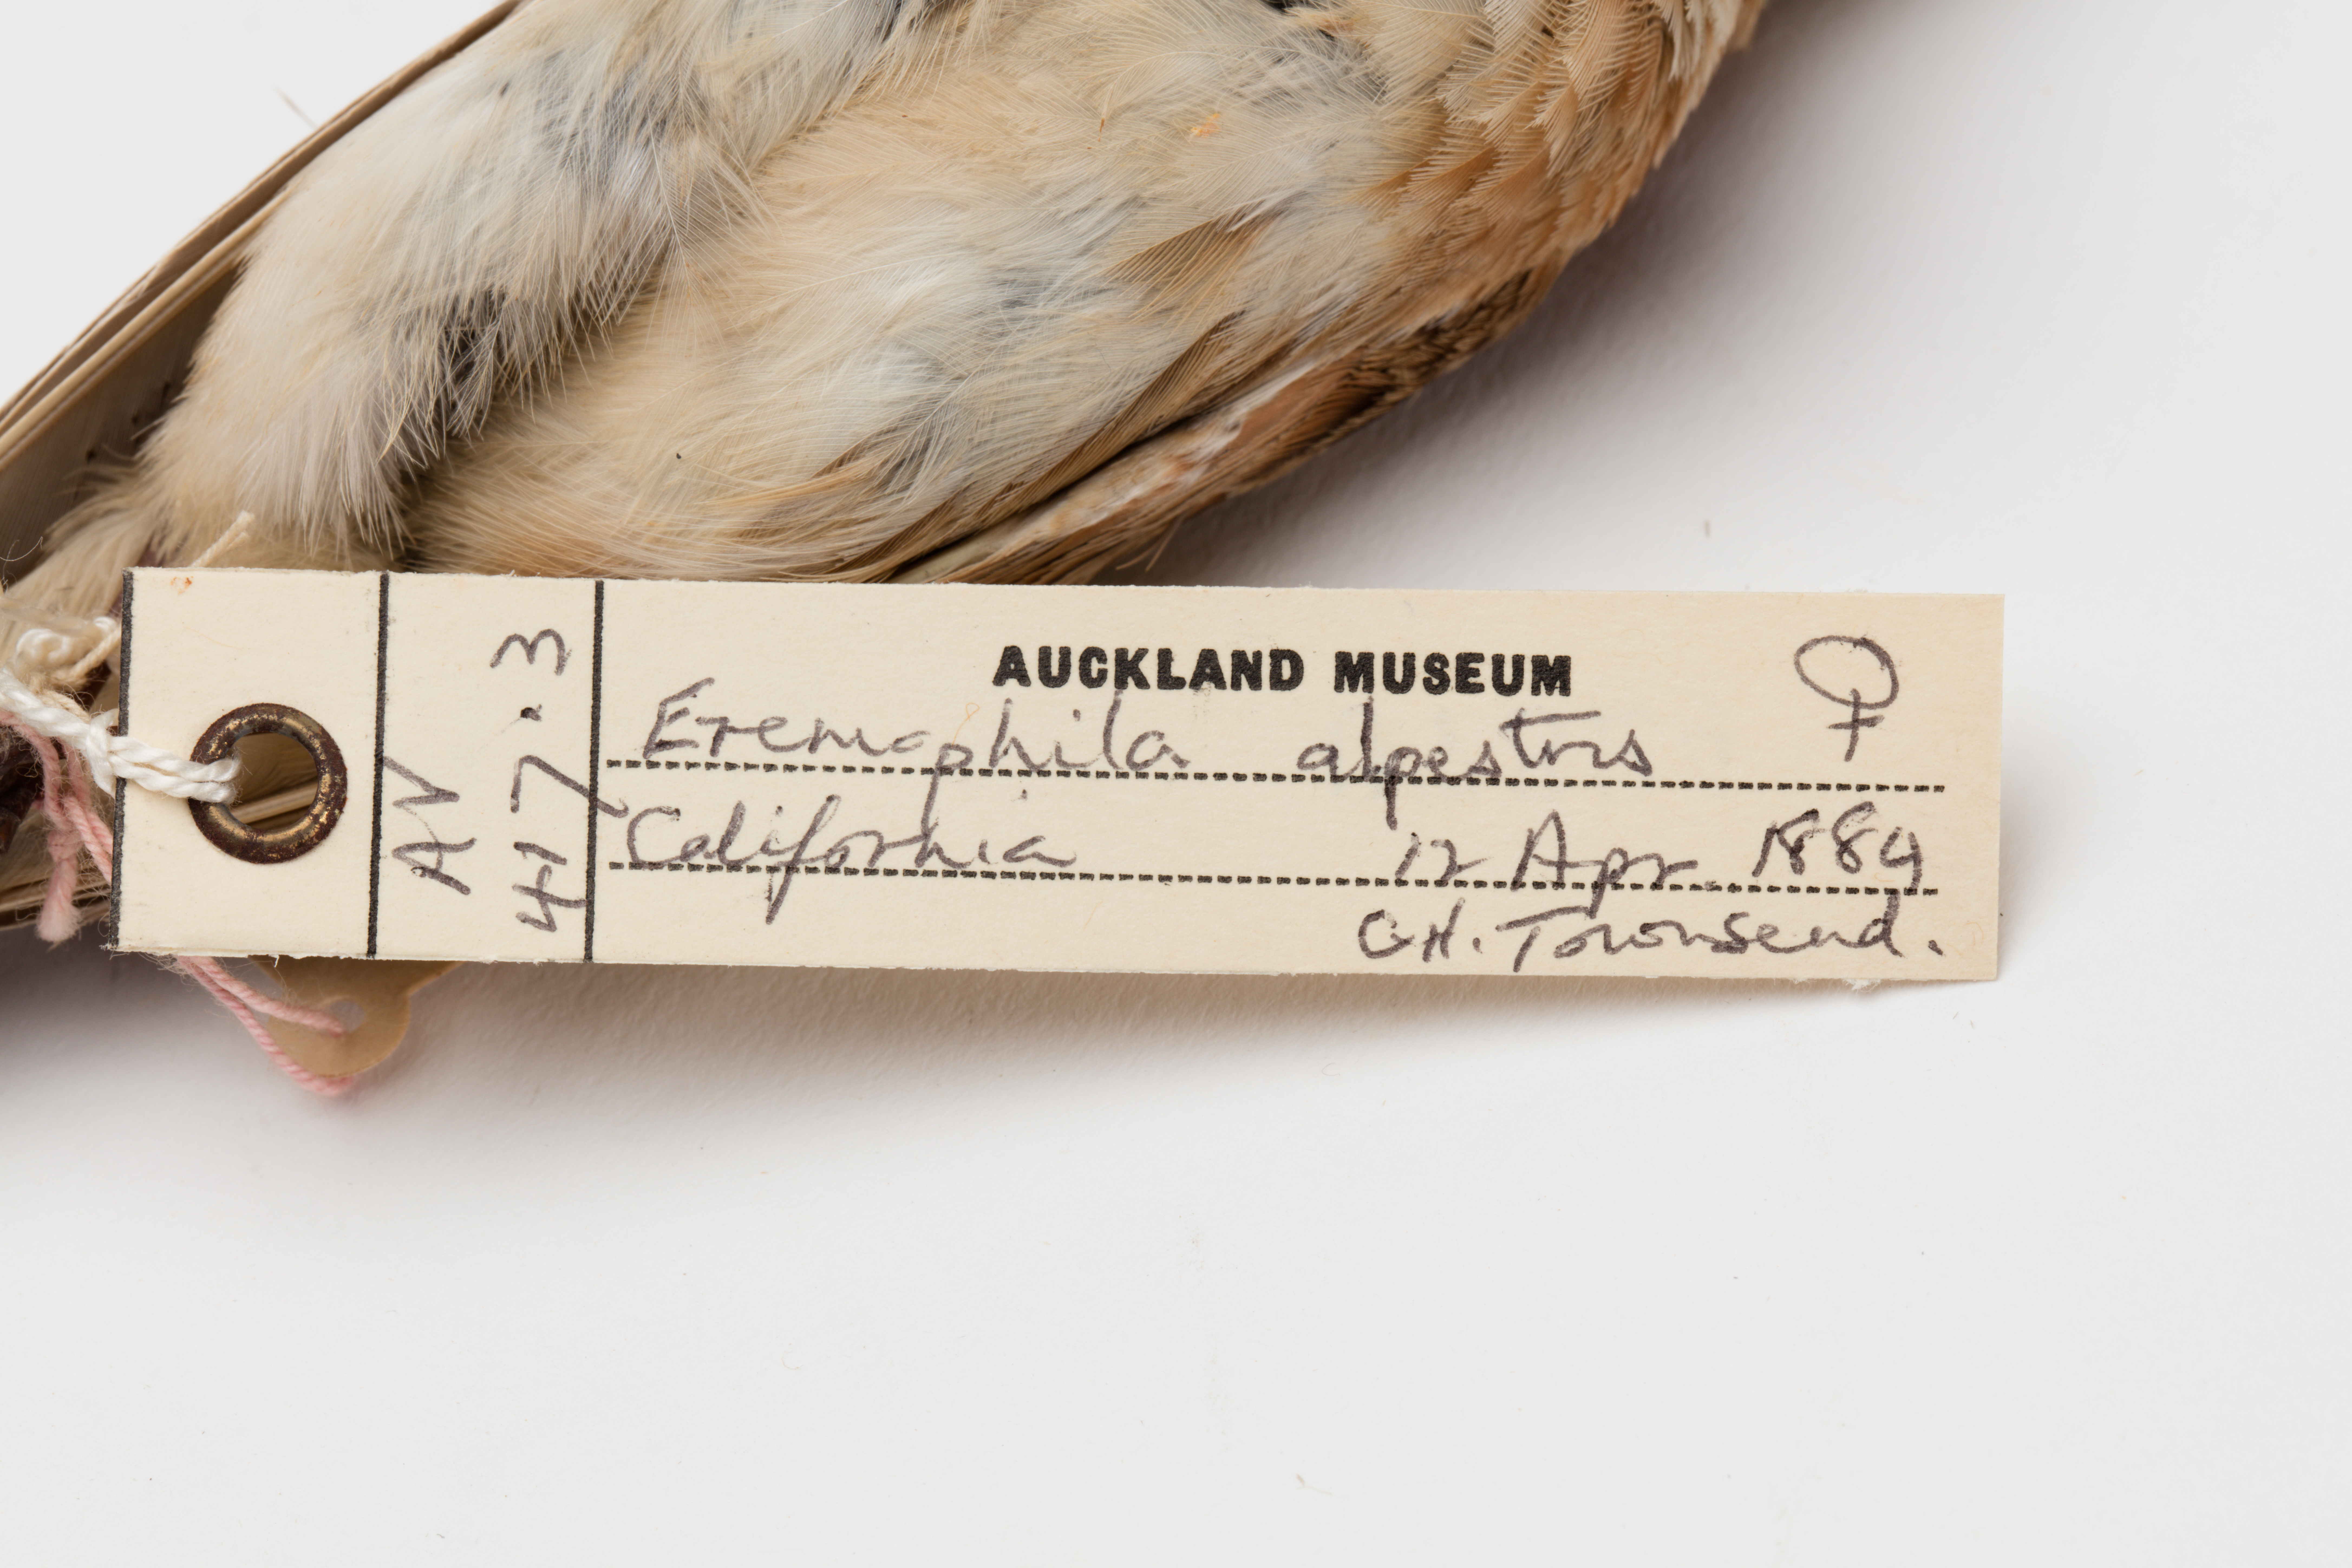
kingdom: Animalia
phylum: Chordata
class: Aves
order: Passeriformes
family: Alaudidae
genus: Eremophila
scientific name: Eremophila alpestris
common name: Horned lark
